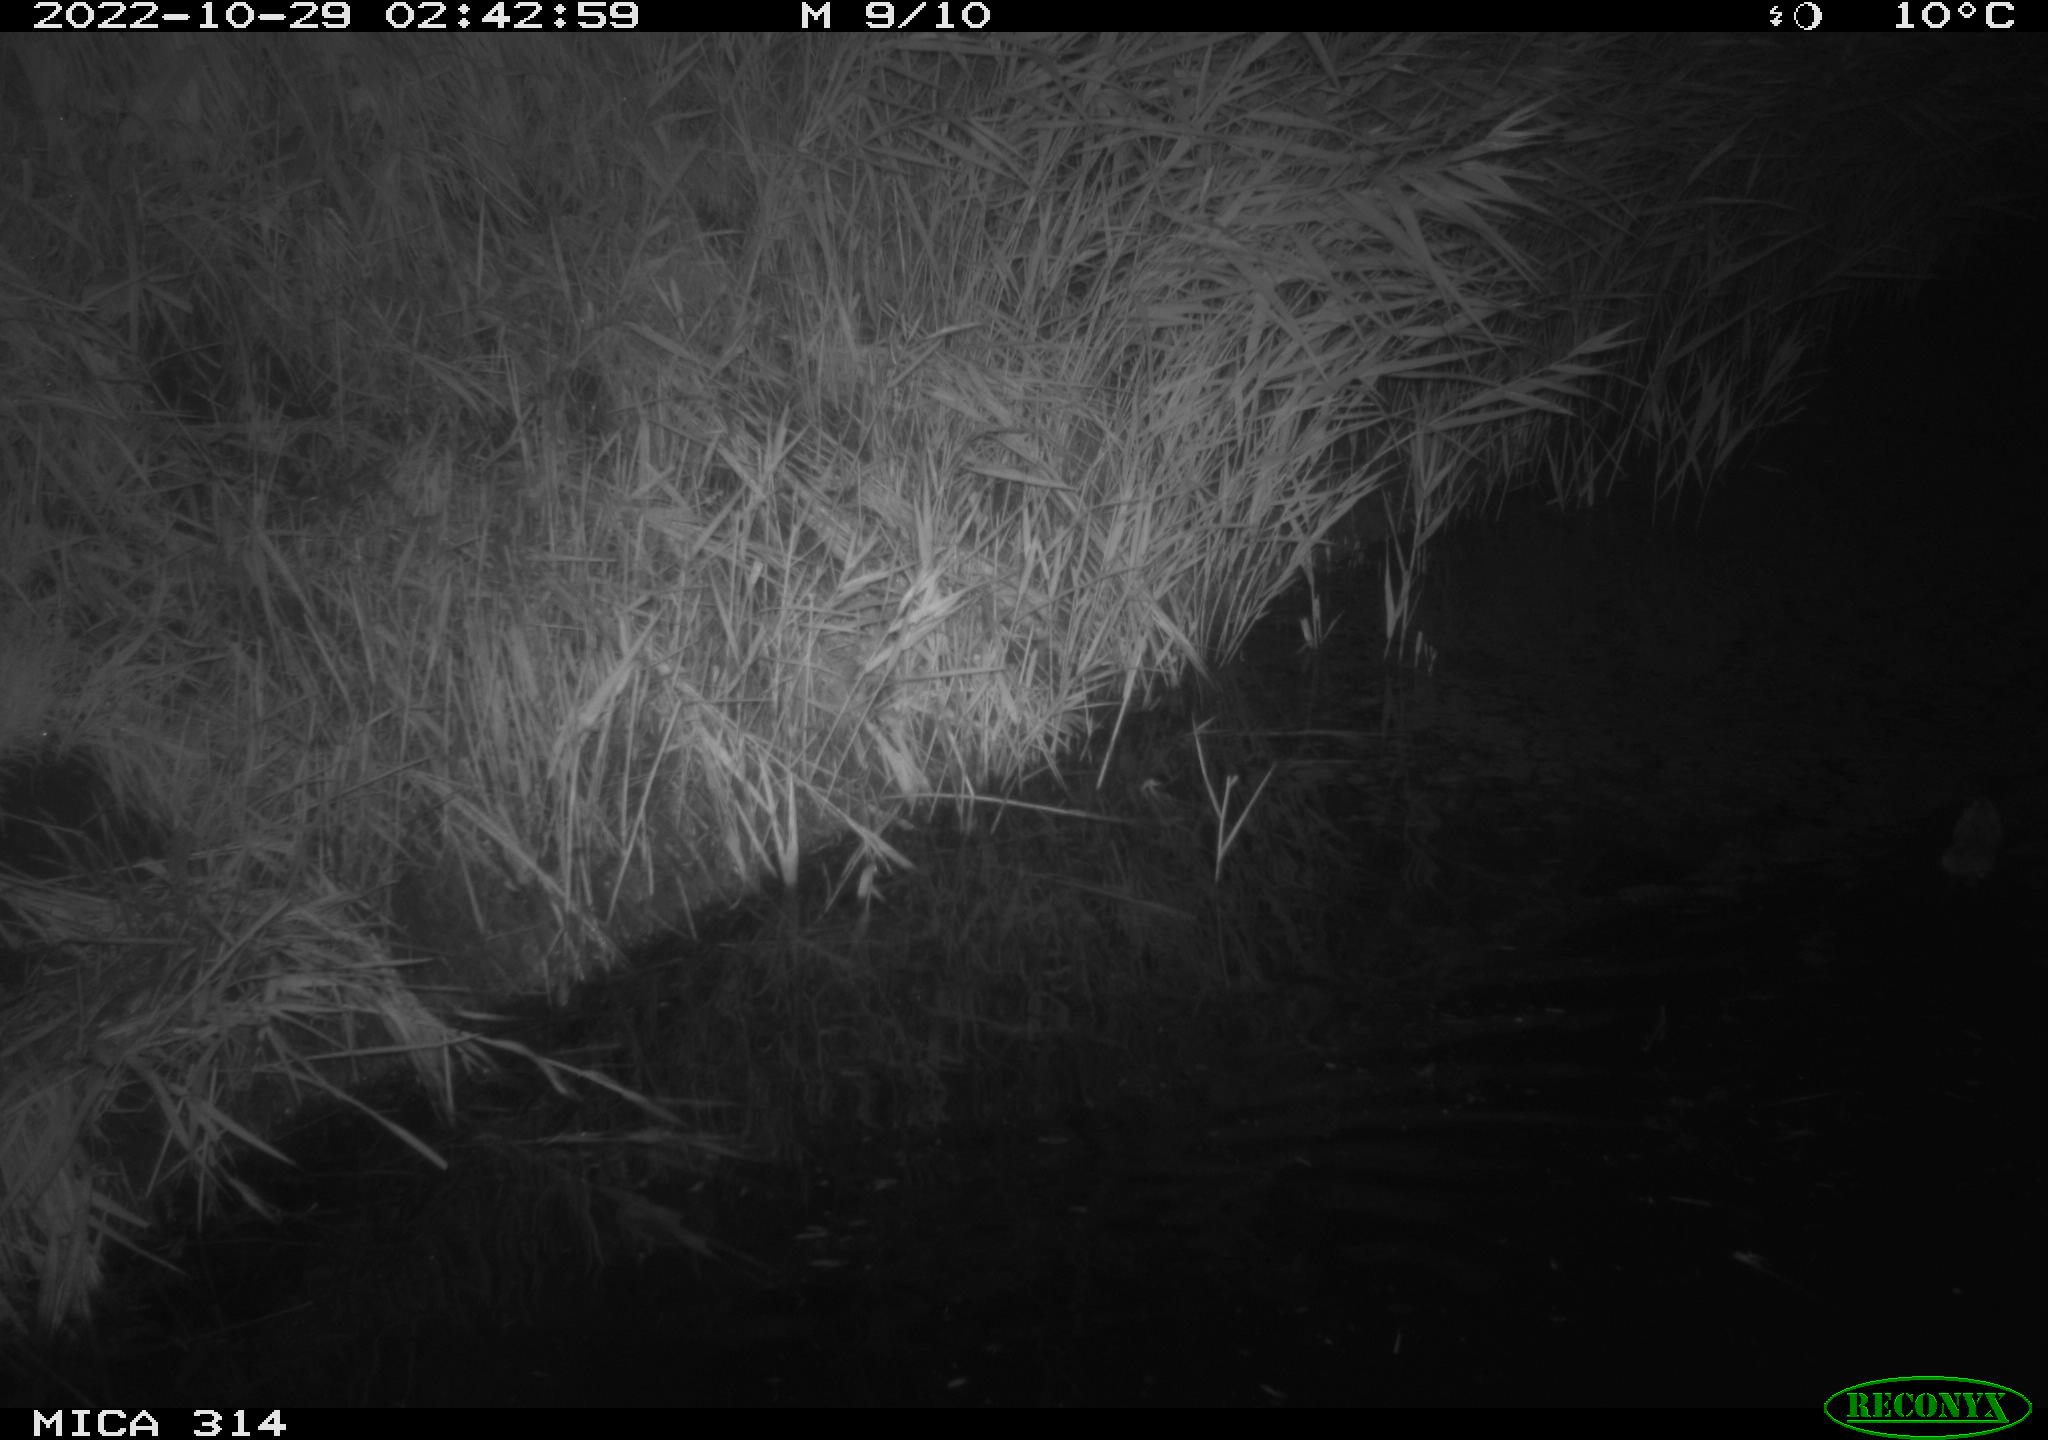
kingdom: Animalia
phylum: Chordata
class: Mammalia
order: Rodentia
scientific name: Rodentia
